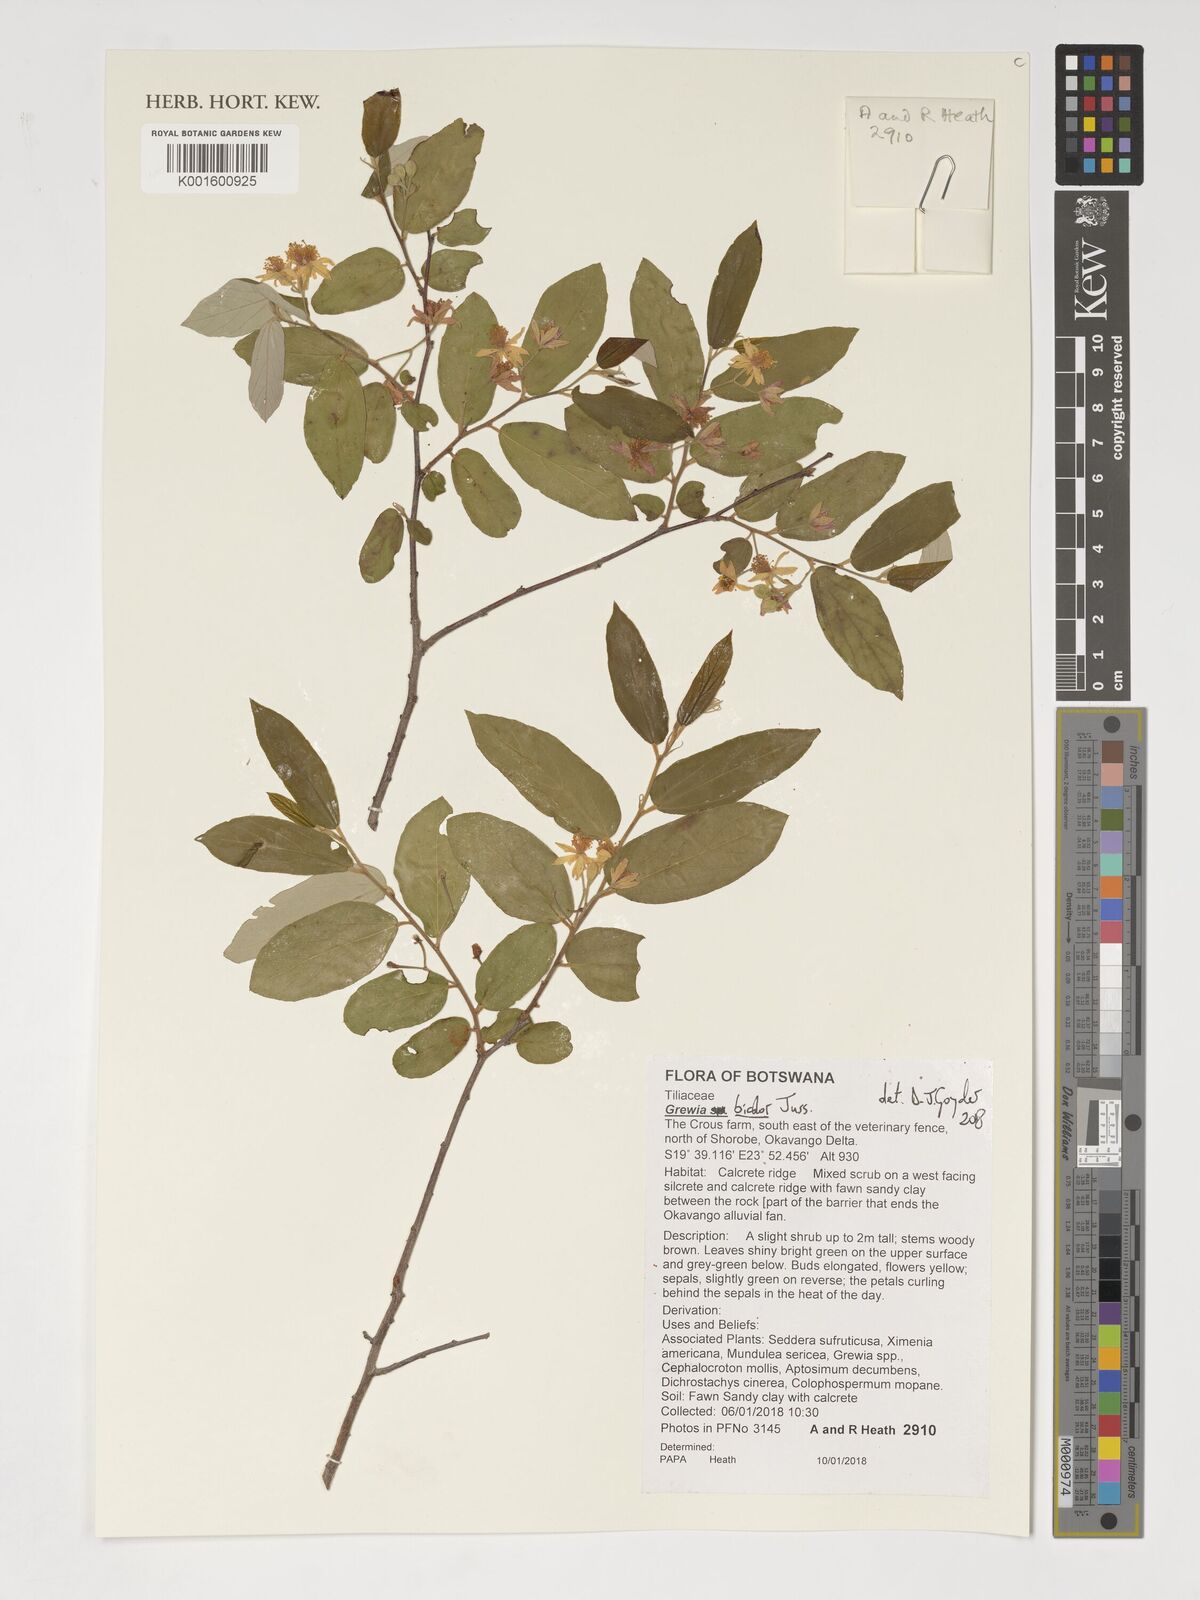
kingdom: Plantae
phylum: Tracheophyta
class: Magnoliopsida
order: Malvales
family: Malvaceae
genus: Grewia
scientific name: Grewia bicolor
